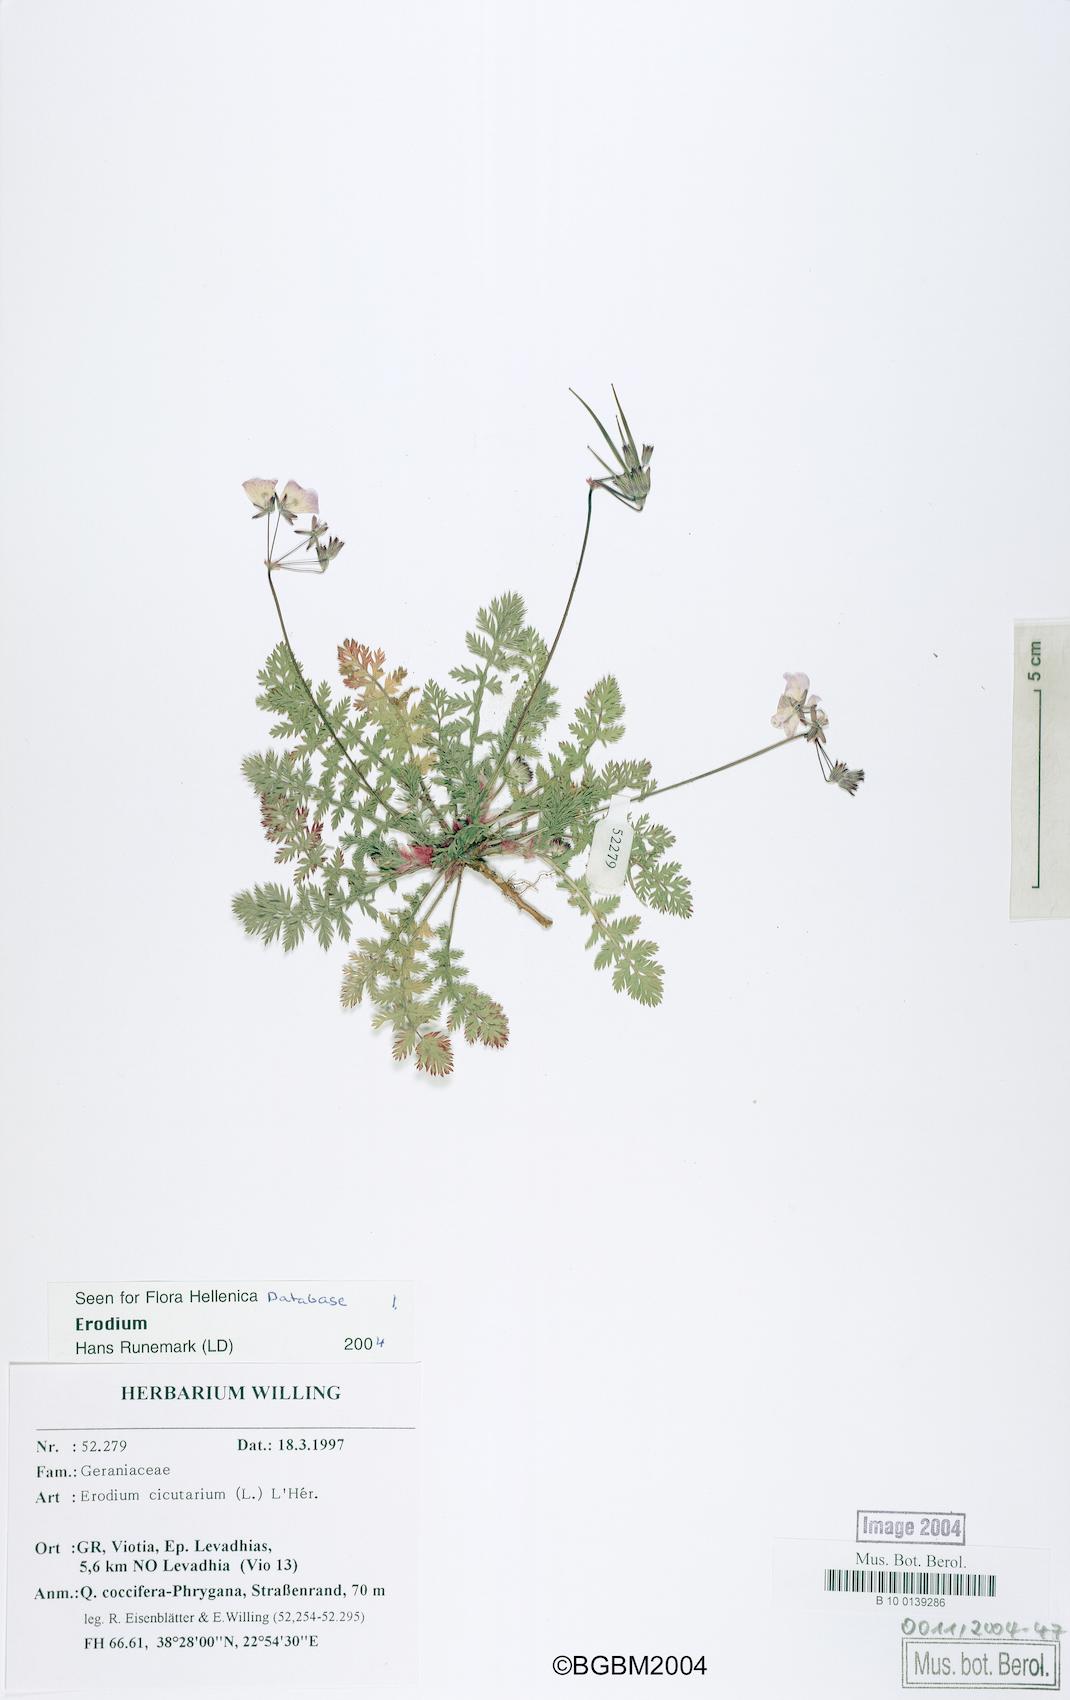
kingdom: Plantae
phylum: Tracheophyta
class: Magnoliopsida
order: Geraniales
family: Geraniaceae
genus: Erodium
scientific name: Erodium cicutarium
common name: Common stork's-bill
